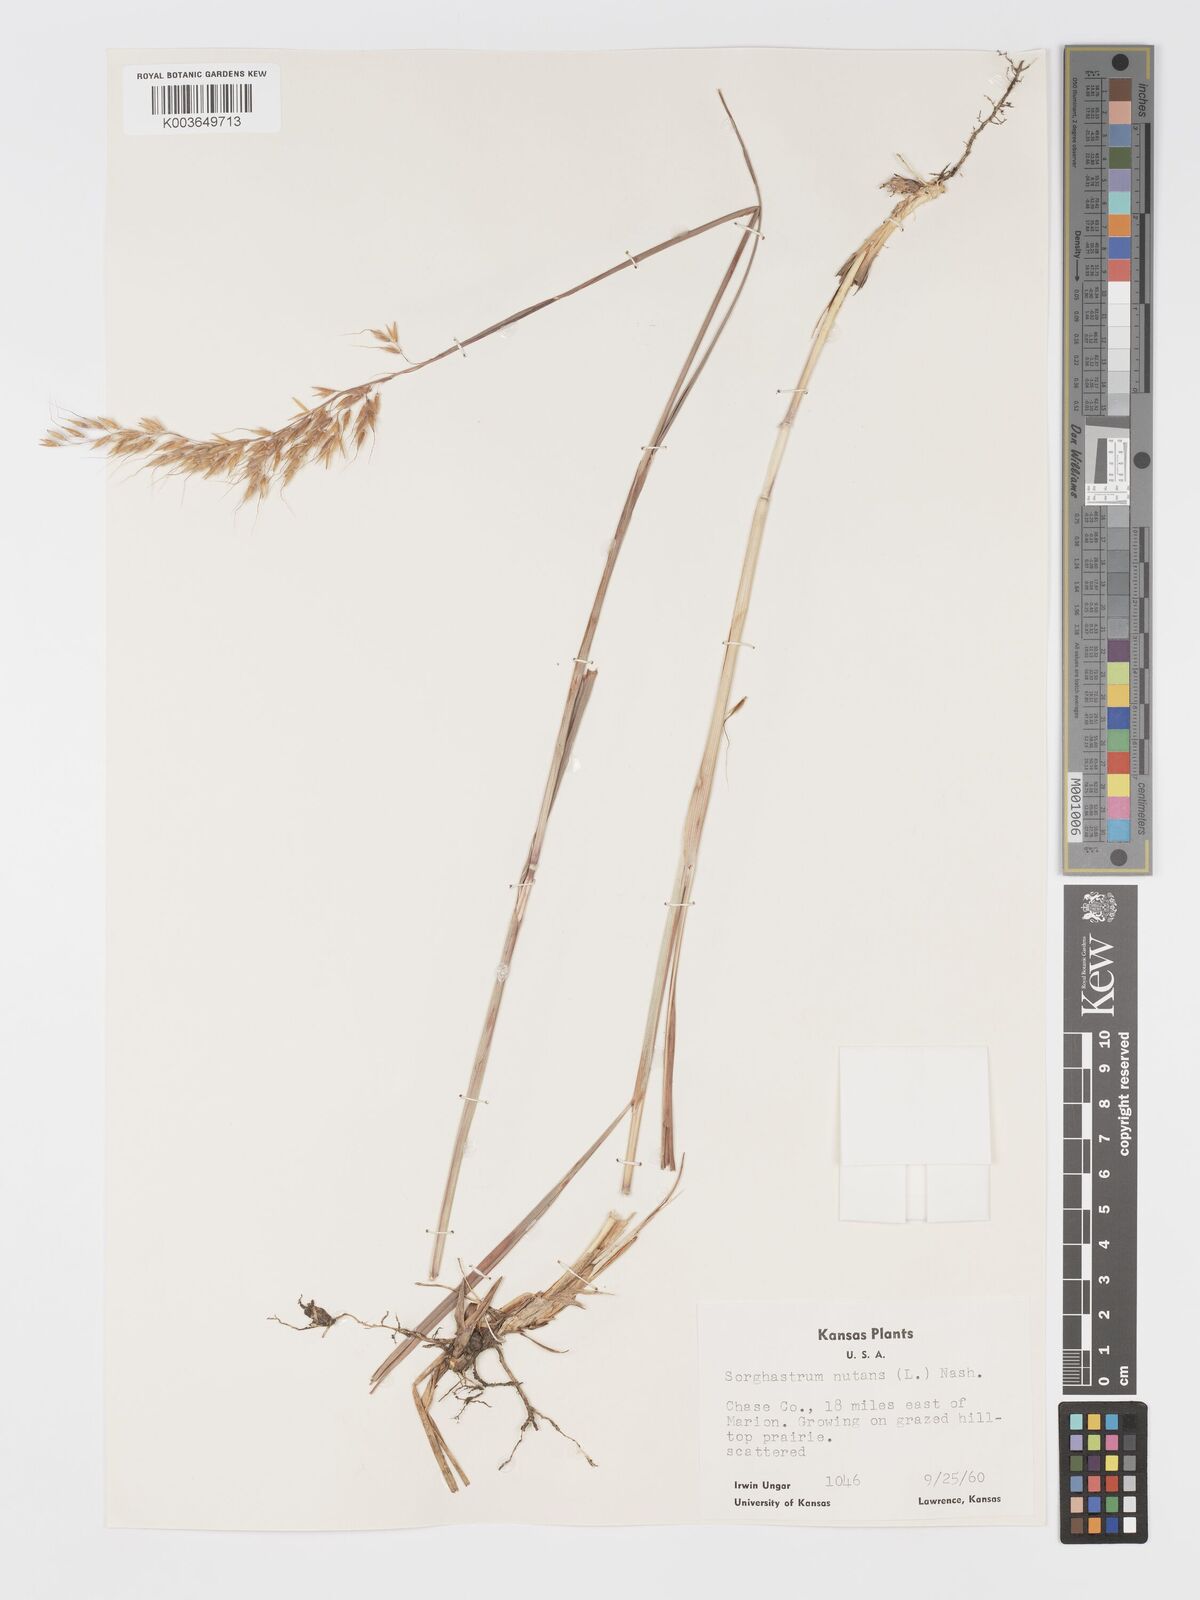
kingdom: Plantae
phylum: Tracheophyta
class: Liliopsida
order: Poales
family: Poaceae
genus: Sorghastrum
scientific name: Sorghastrum nutans
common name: Indian grass
